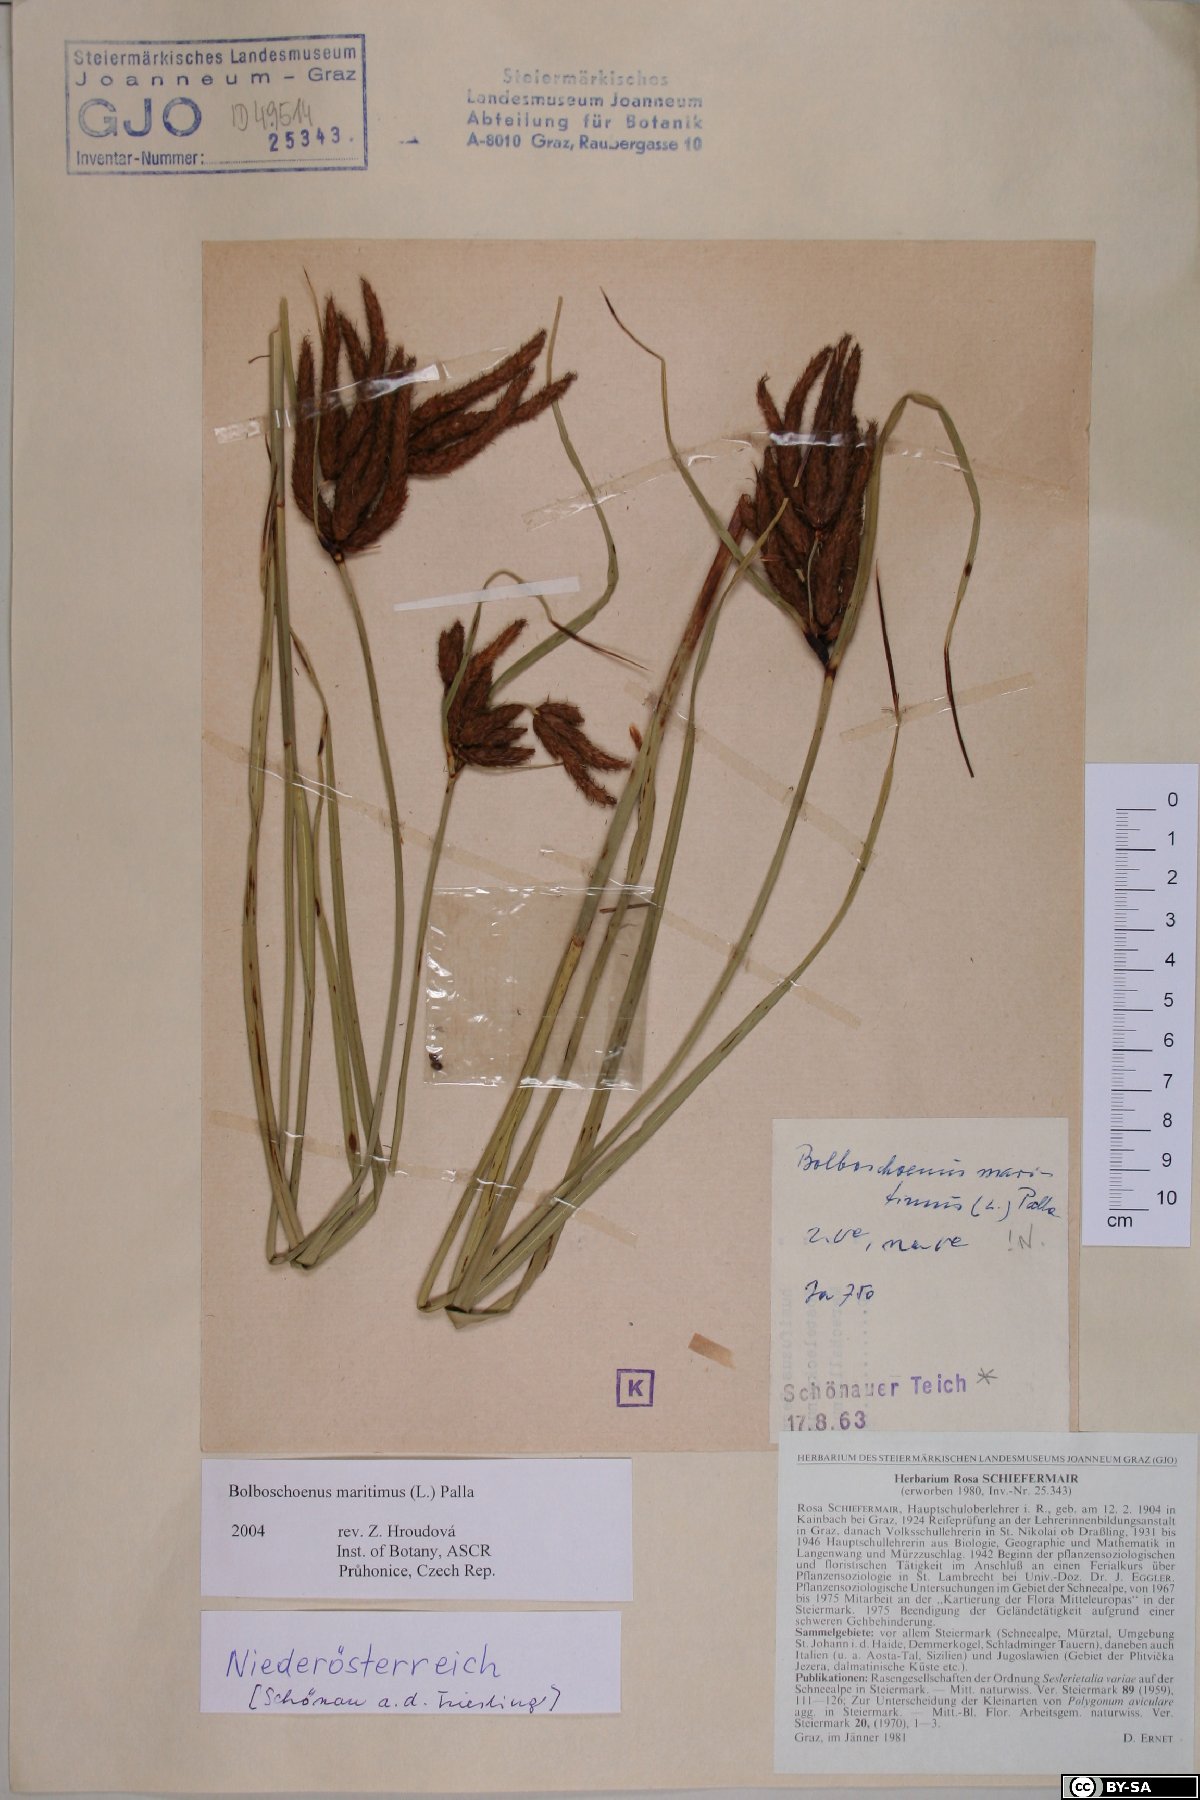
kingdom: Plantae
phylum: Tracheophyta
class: Liliopsida
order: Poales
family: Cyperaceae
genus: Bolboschoenus
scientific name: Bolboschoenus maritimus
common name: Sea club-rush
